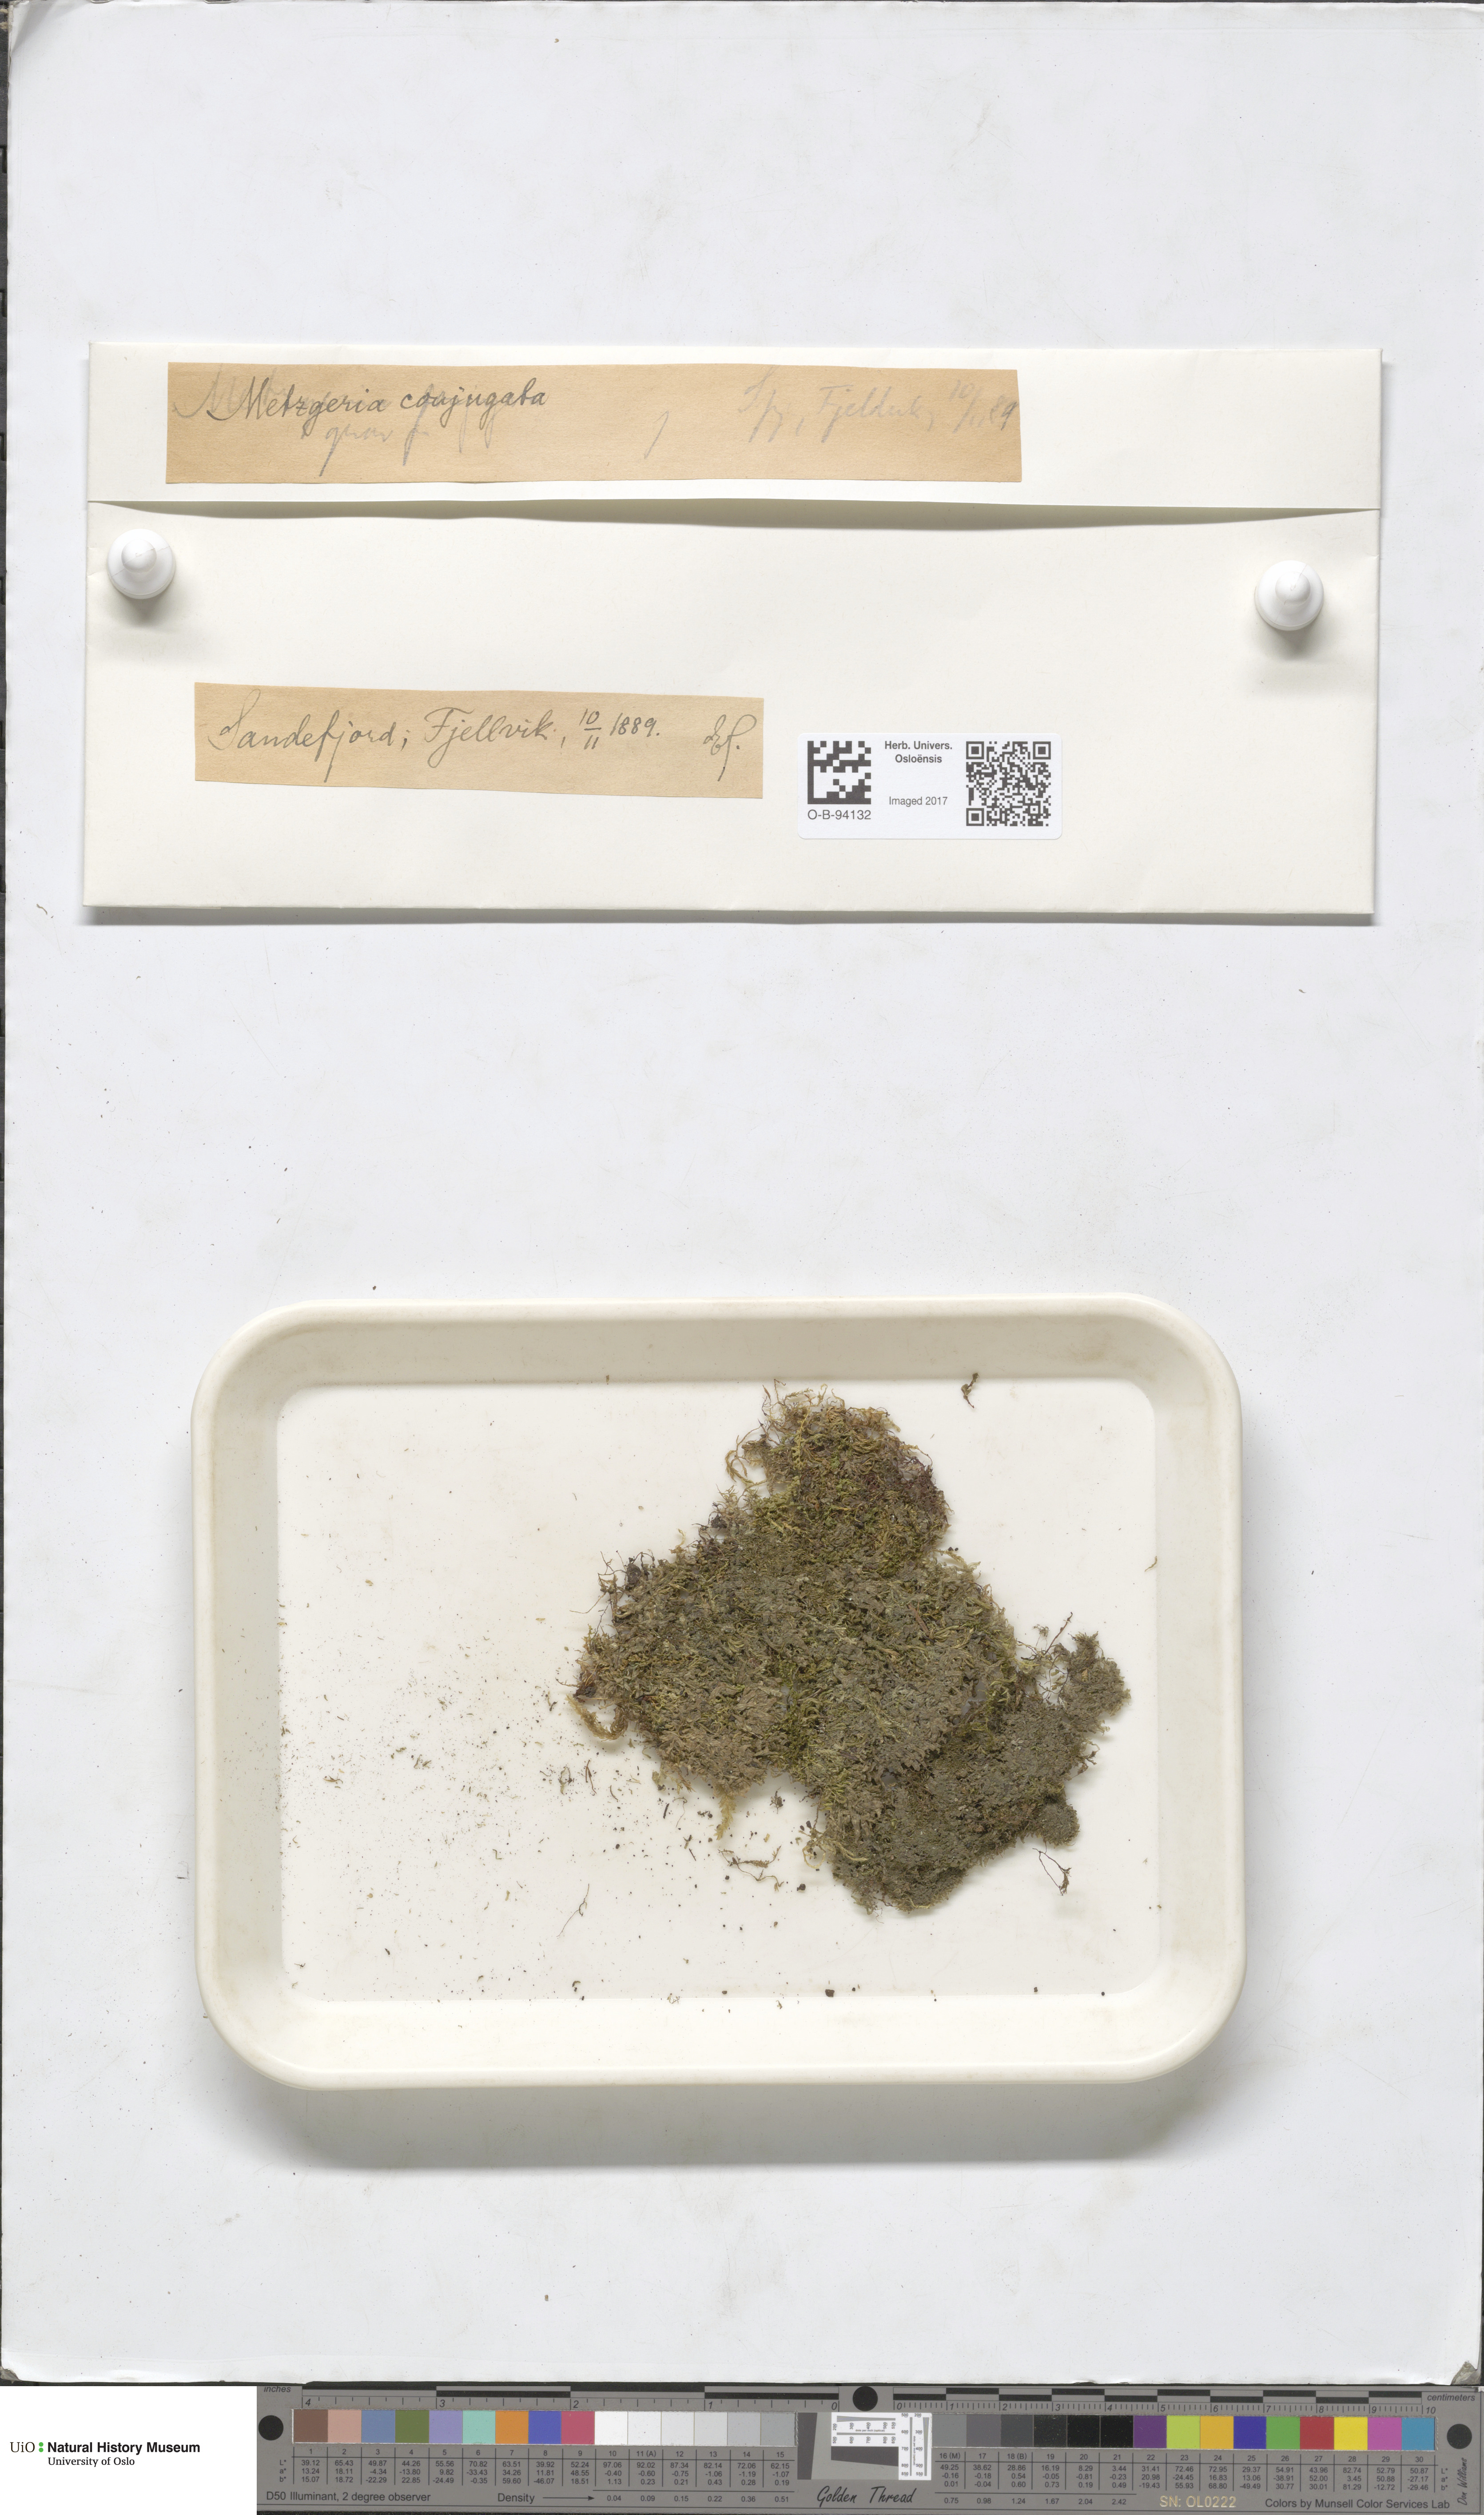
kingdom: Plantae
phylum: Marchantiophyta
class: Jungermanniopsida
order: Metzgeriales
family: Metzgeriaceae
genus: Metzgeria
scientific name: Metzgeria conjugata
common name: Rock veilwort
